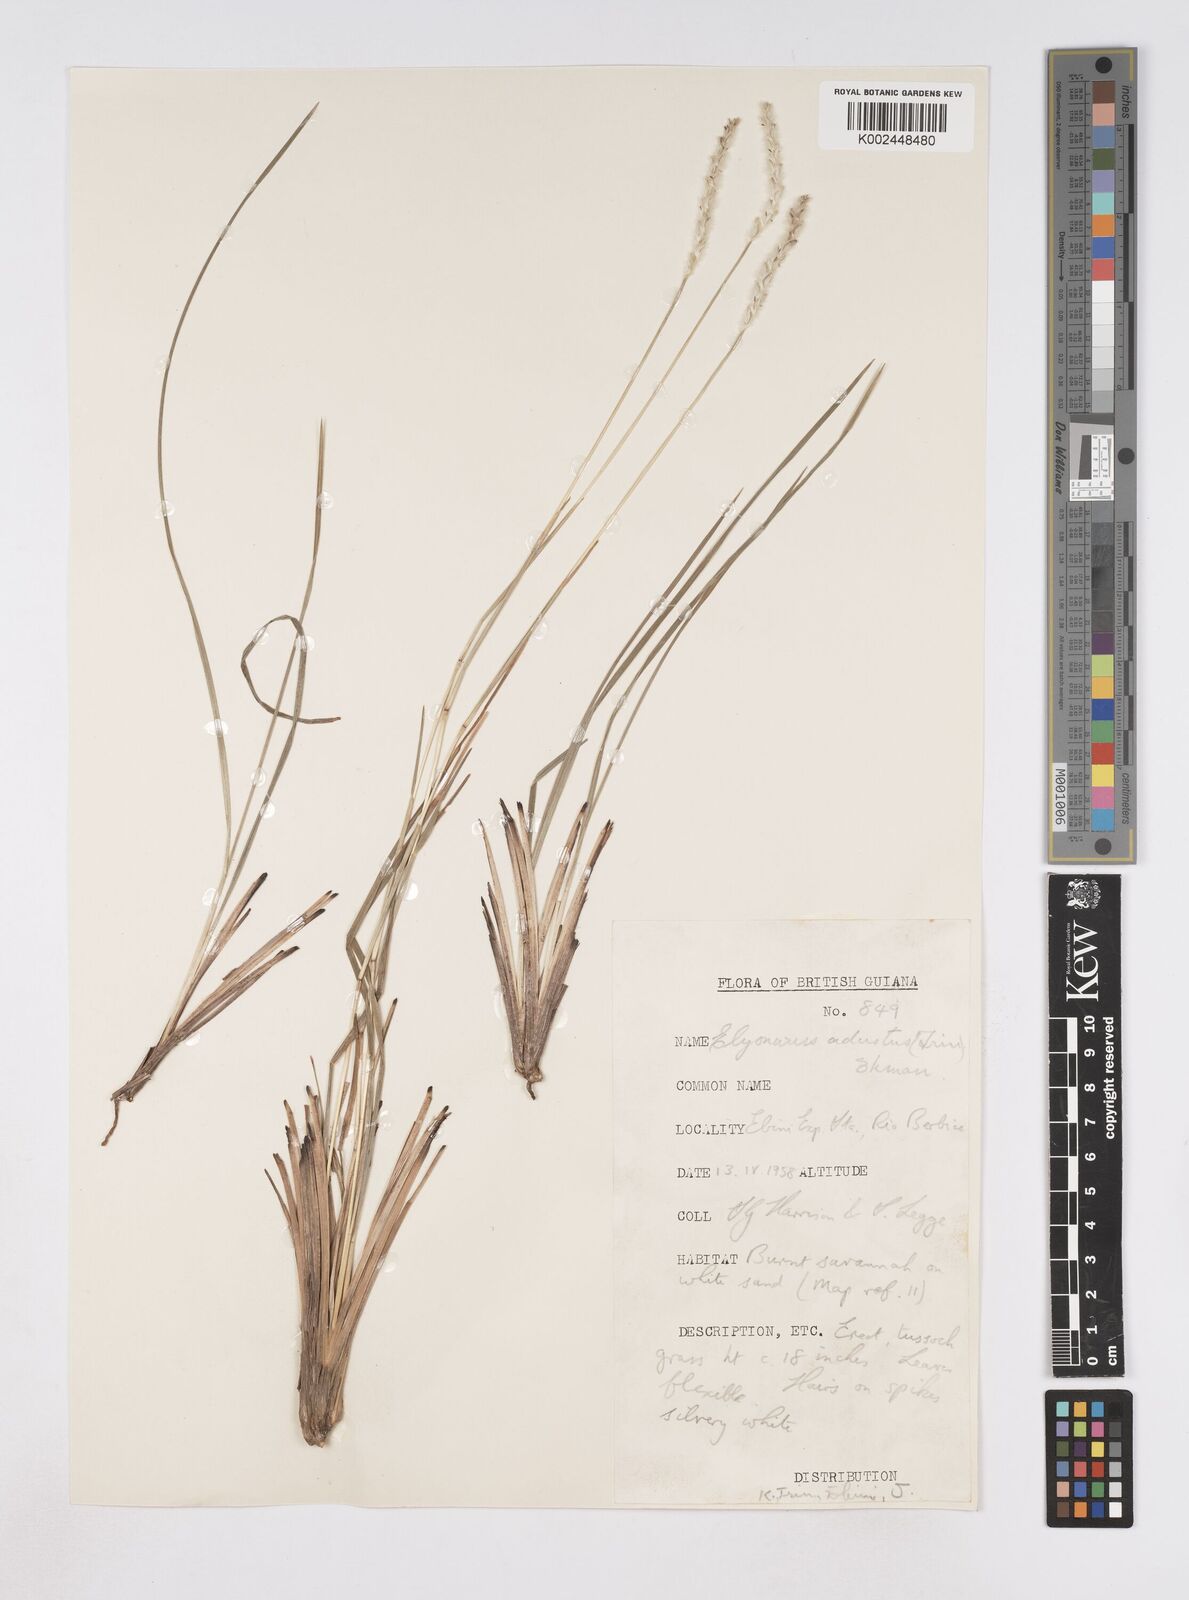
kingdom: Plantae
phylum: Tracheophyta
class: Liliopsida
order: Poales
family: Poaceae
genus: Elionurus
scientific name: Elionurus planifolius
